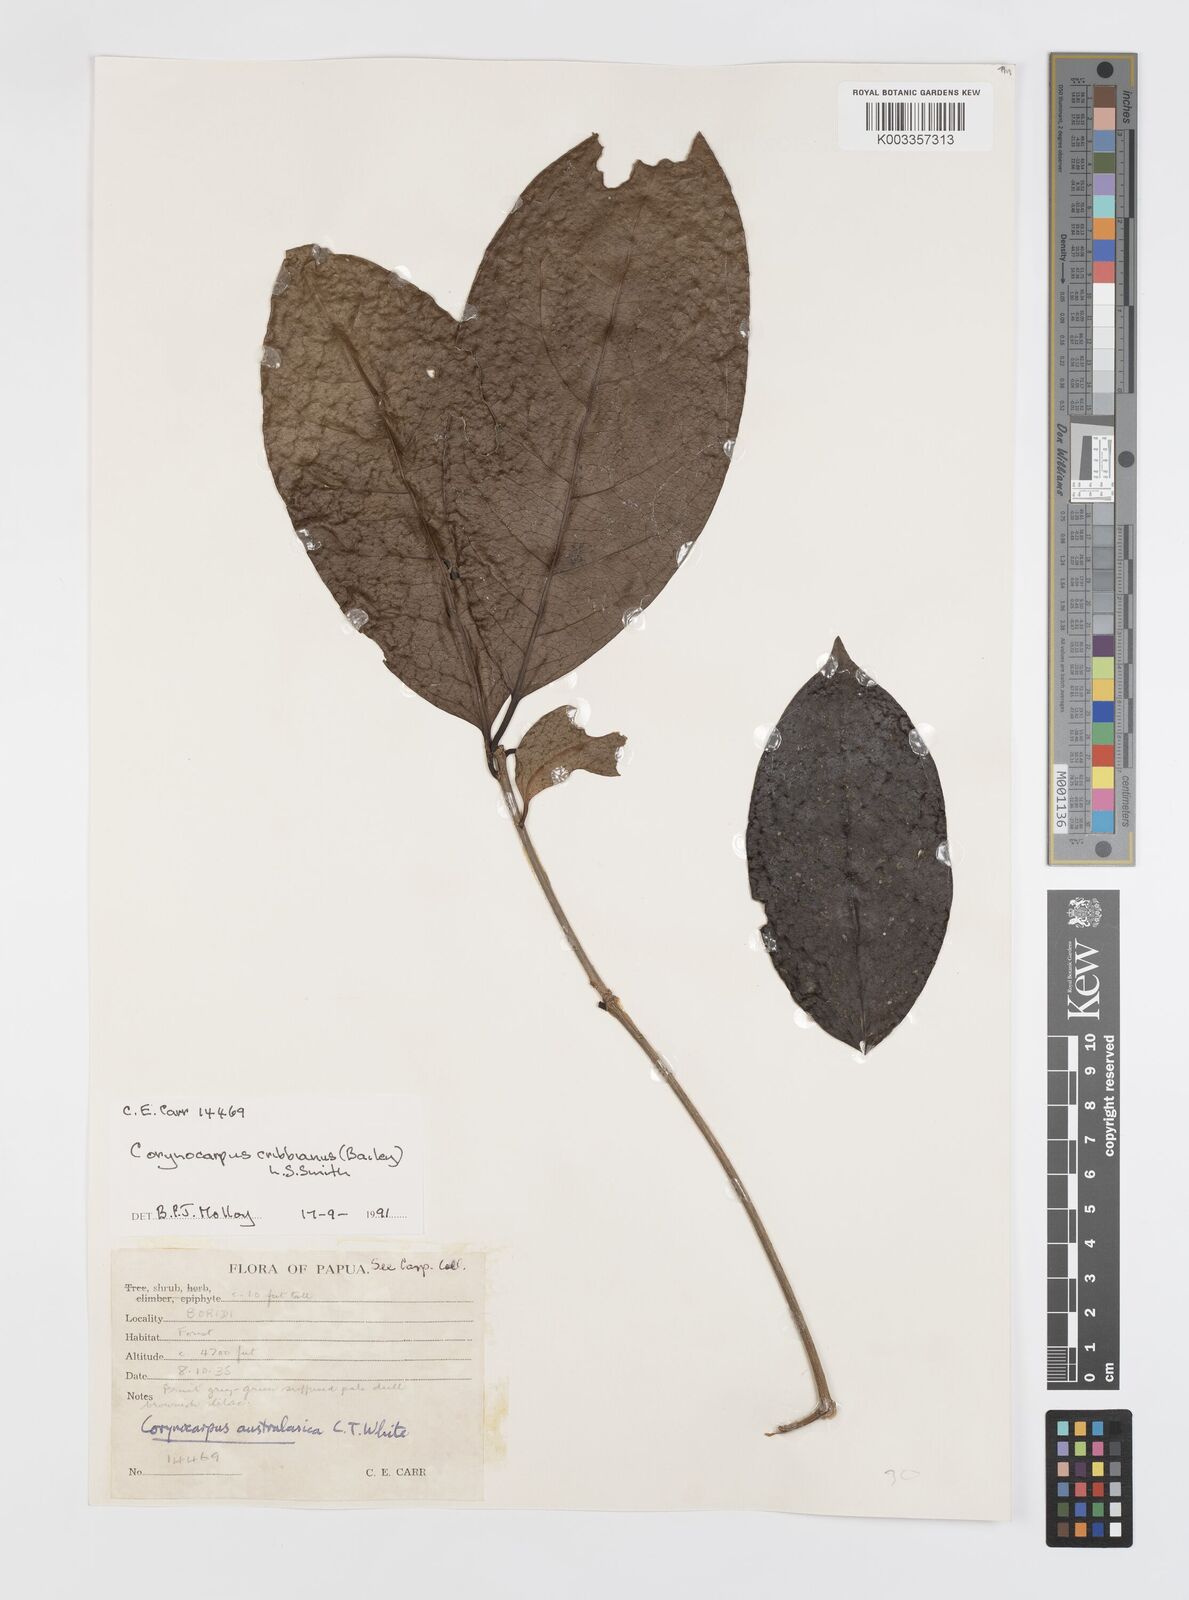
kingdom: Plantae
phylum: Tracheophyta
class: Magnoliopsida
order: Cucurbitales
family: Corynocarpaceae
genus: Corynocarpus
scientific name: Corynocarpus cribbianus
